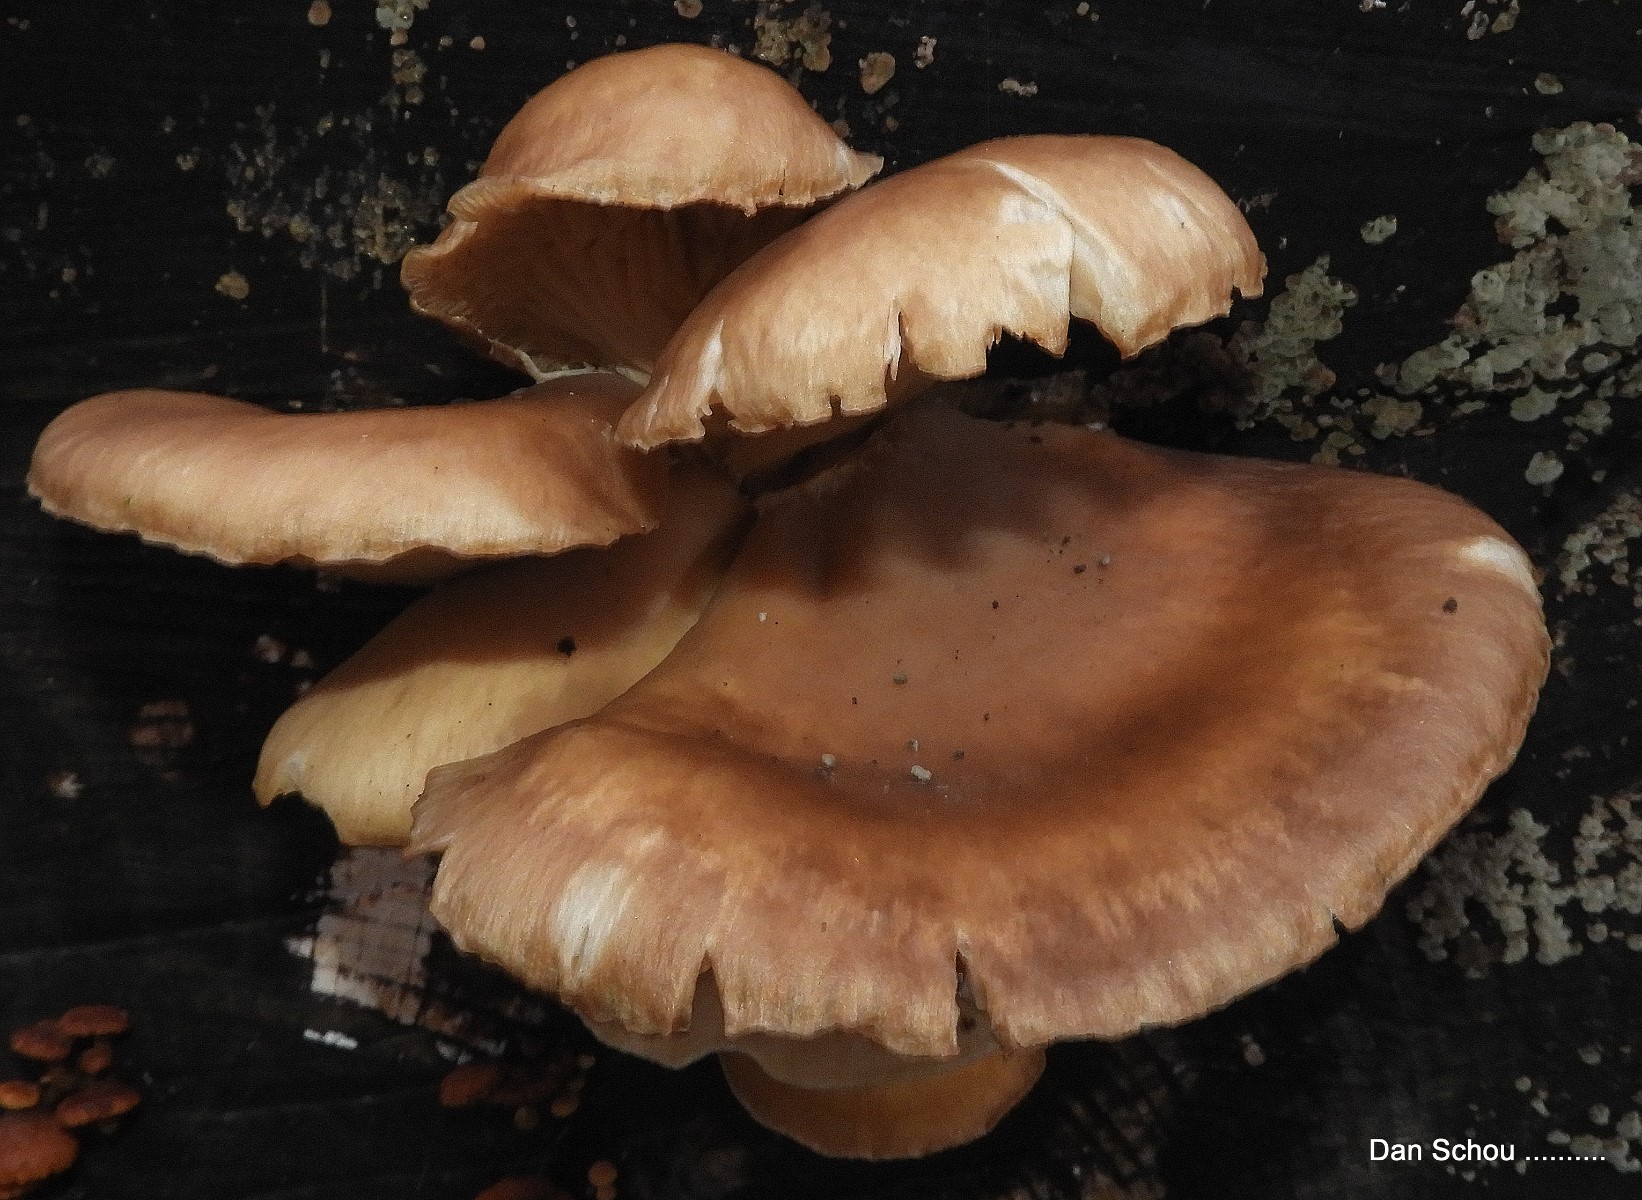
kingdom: Fungi
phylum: Basidiomycota
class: Agaricomycetes
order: Agaricales
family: Pleurotaceae
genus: Pleurotus
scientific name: Pleurotus ostreatus
